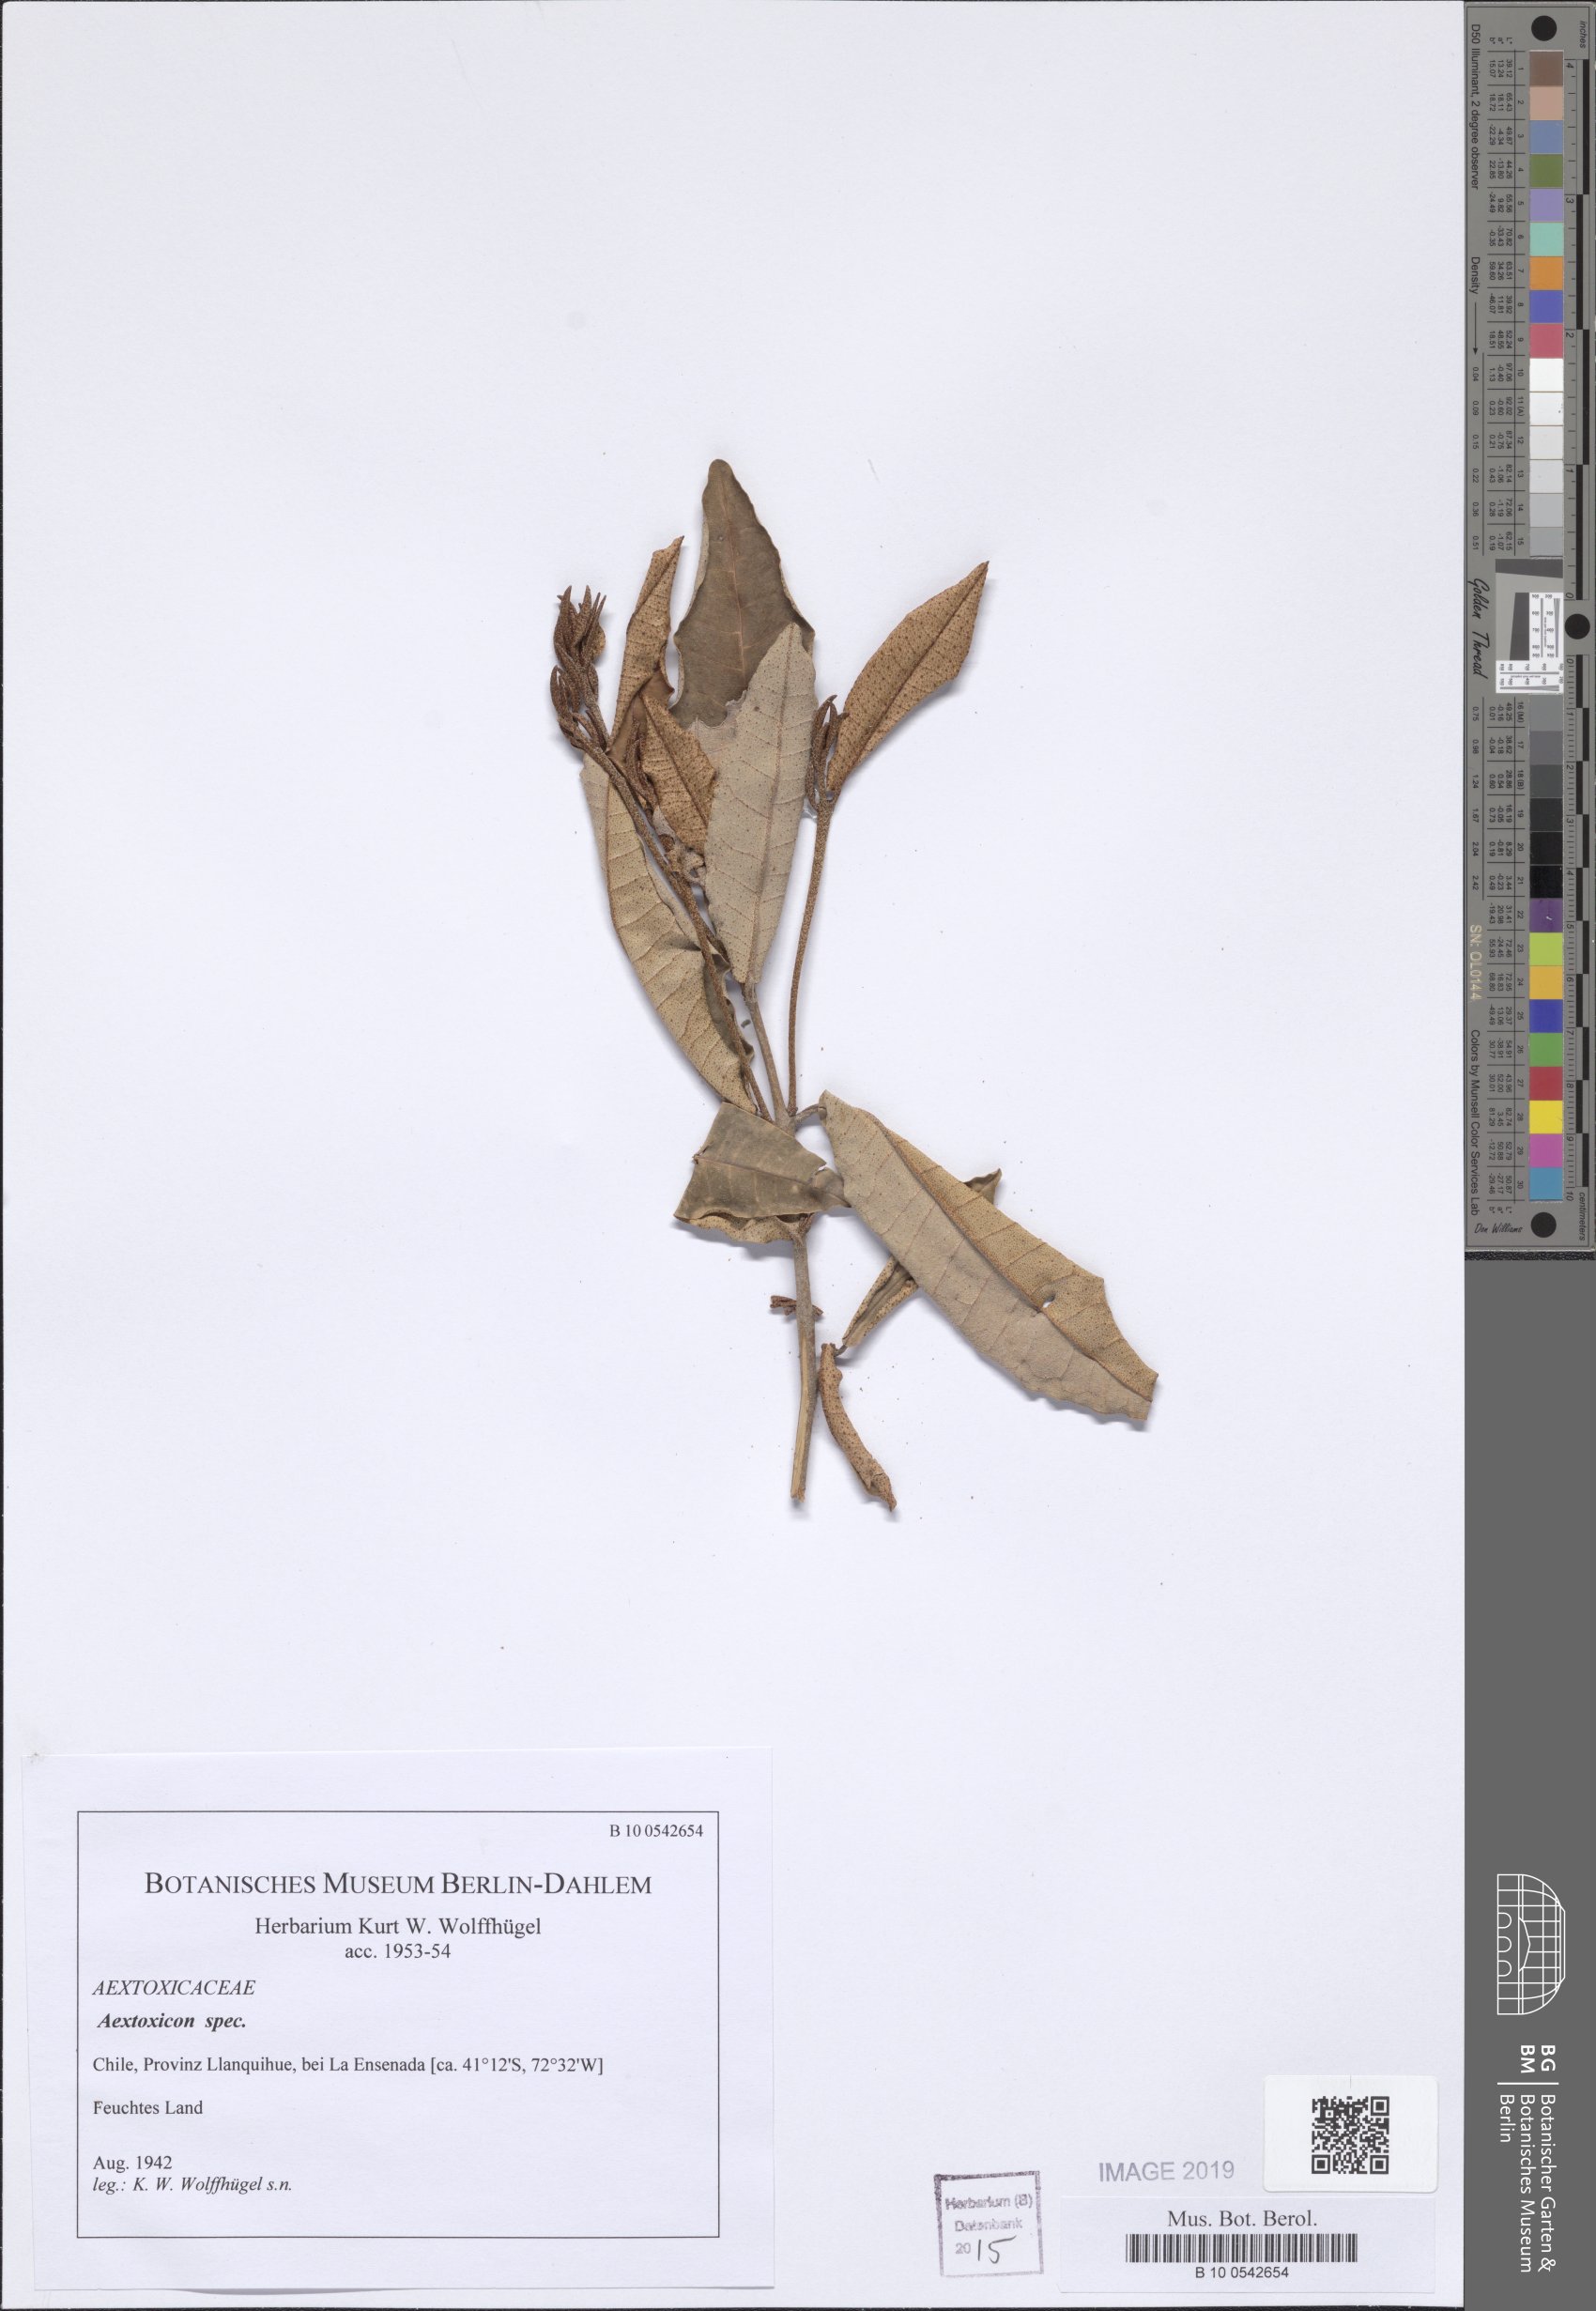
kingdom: Plantae
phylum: Tracheophyta
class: Magnoliopsida
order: Berberidopsidales
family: Aextoxicaceae
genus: Aextoxicon
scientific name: Aextoxicon
